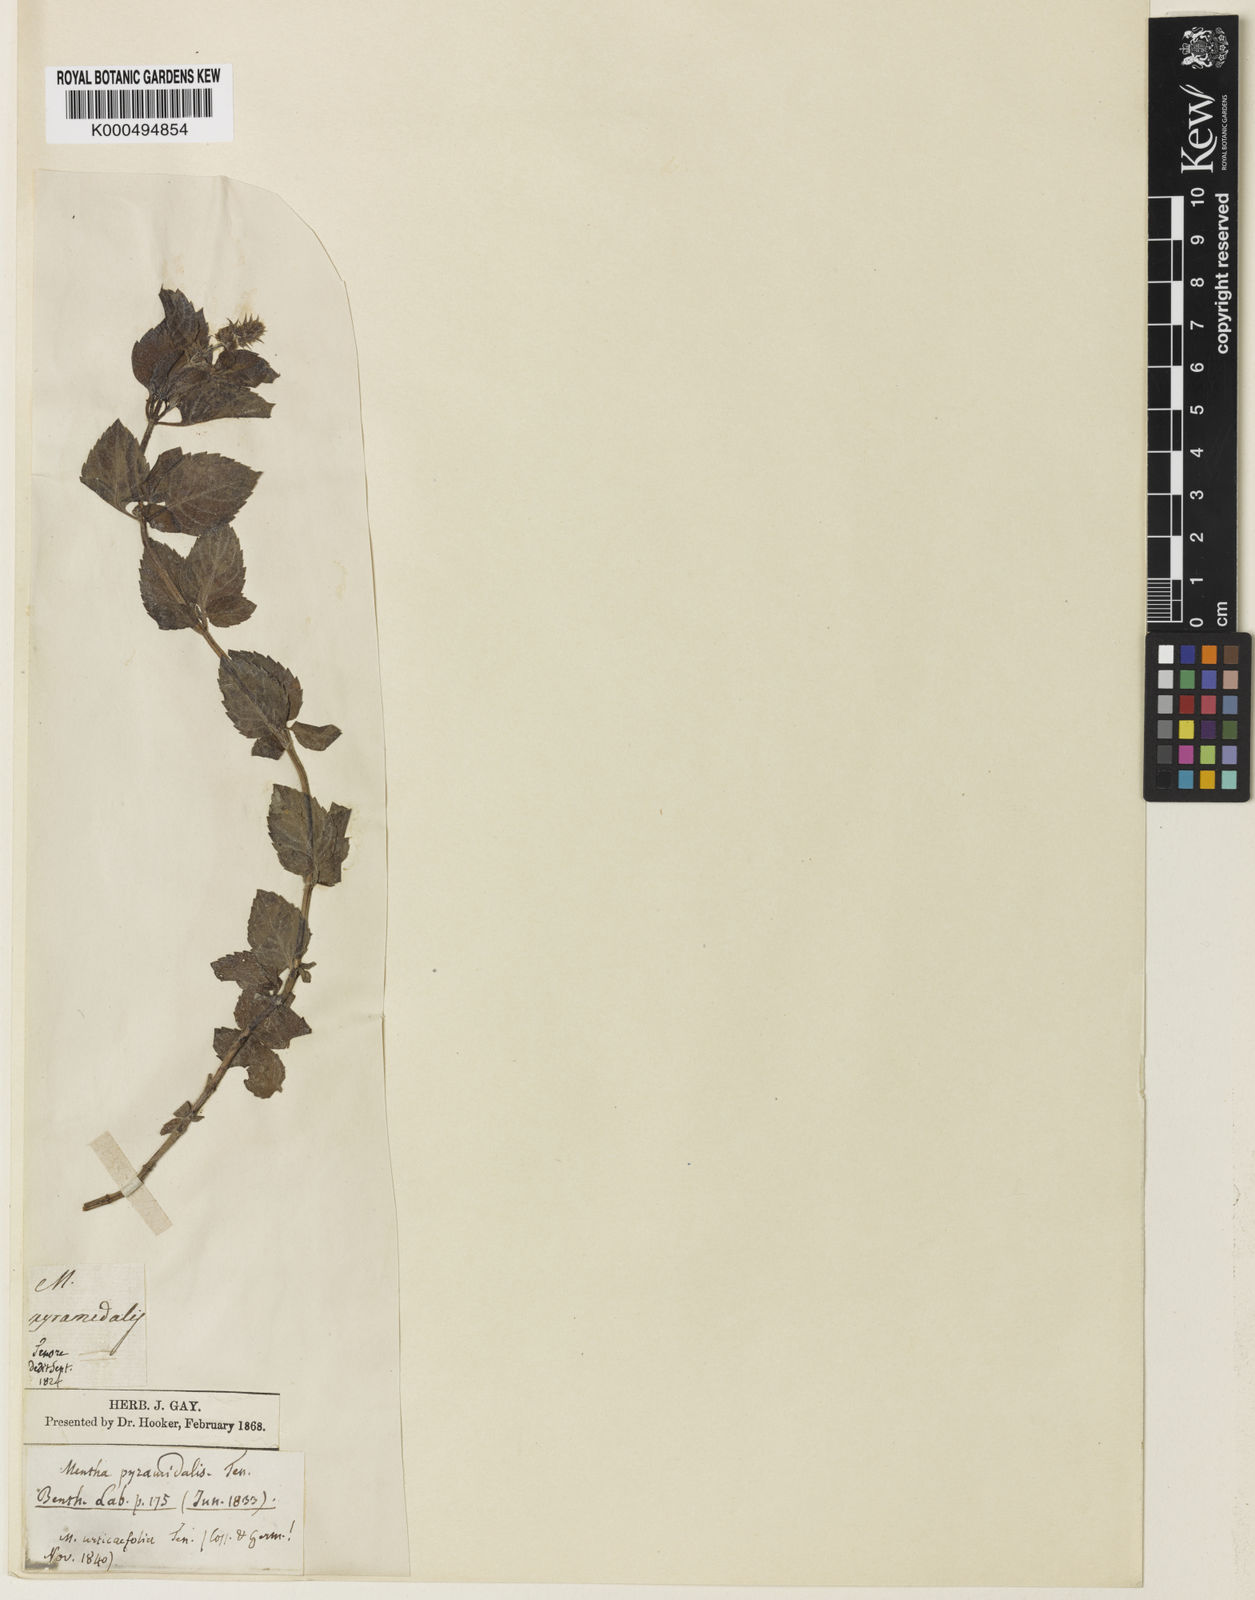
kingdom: Plantae
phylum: Tracheophyta
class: Magnoliopsida
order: Lamiales
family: Lamiaceae
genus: Mentha
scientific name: Mentha pyramidalis
